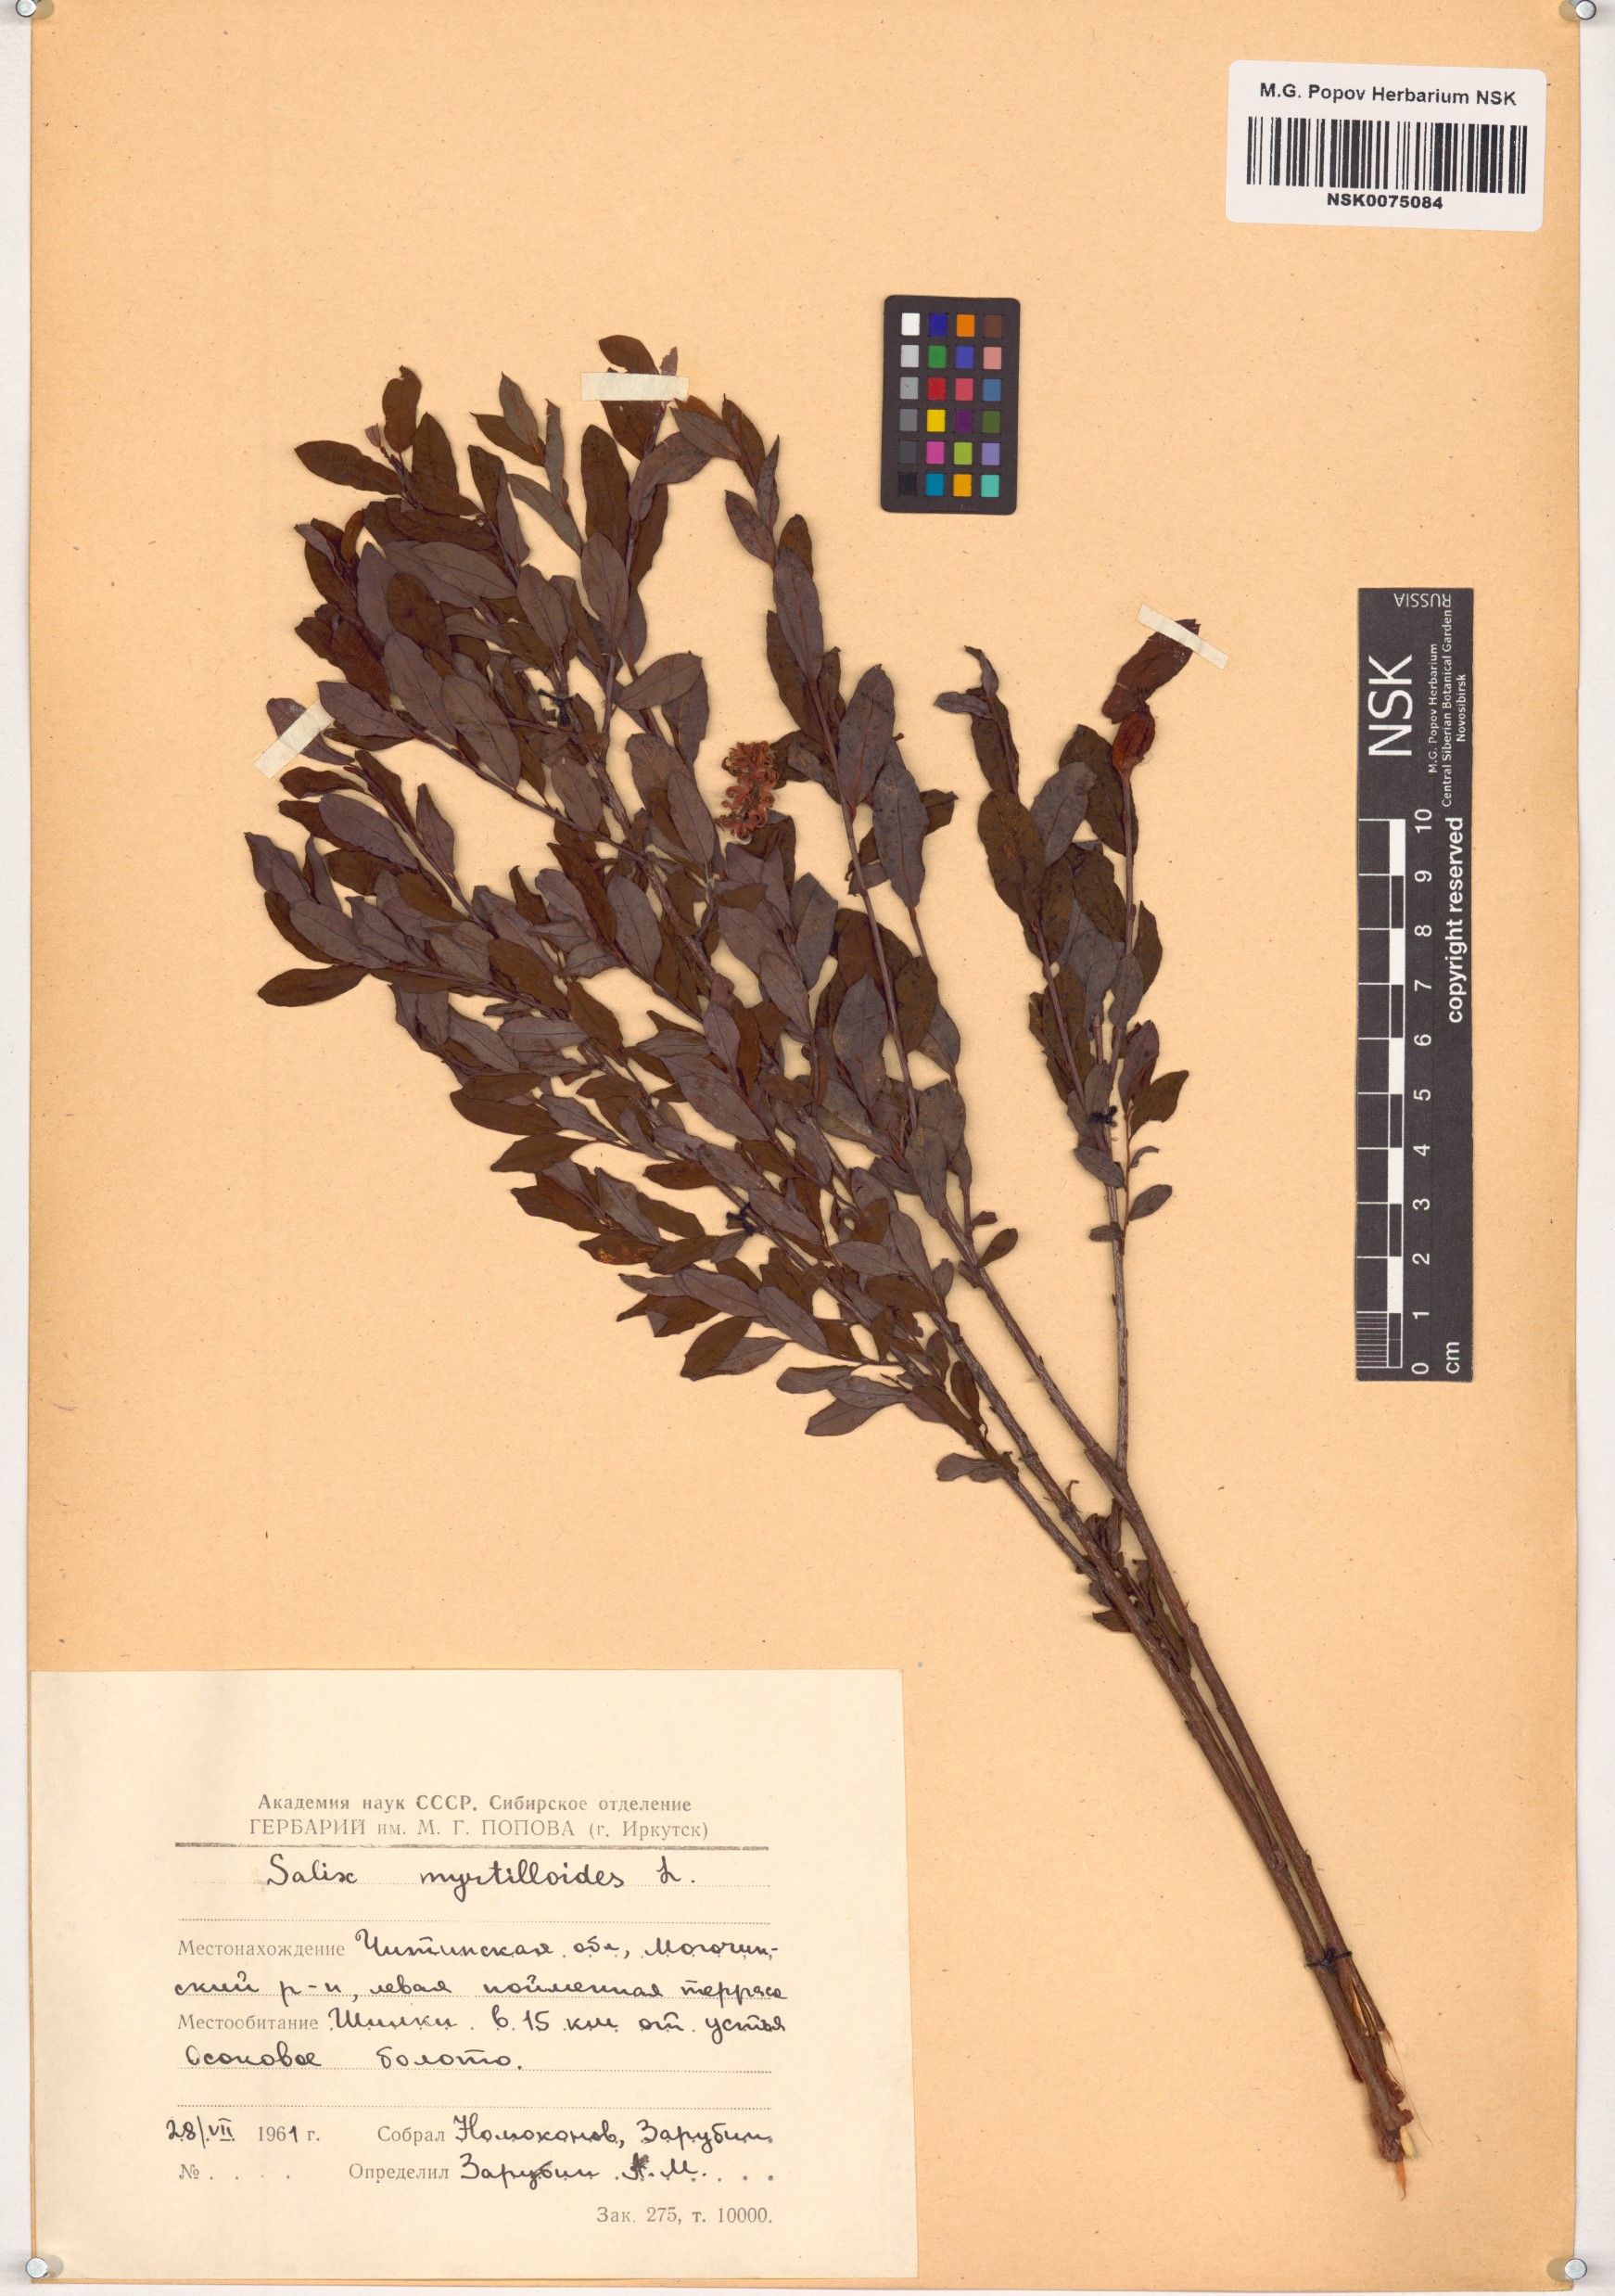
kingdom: Plantae
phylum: Tracheophyta
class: Magnoliopsida
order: Malpighiales
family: Salicaceae
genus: Salix
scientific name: Salix myrtilloides
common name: Myrtle-leaved willow
